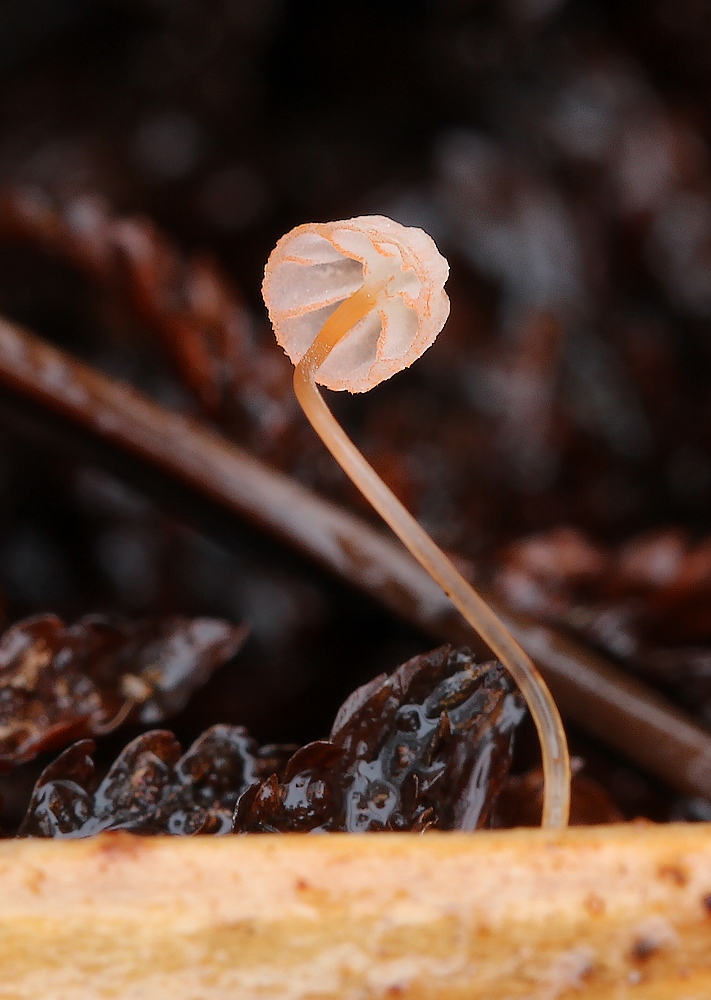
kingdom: Fungi
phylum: Basidiomycota
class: Agaricomycetes
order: Agaricales
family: Mycenaceae
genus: Mycena
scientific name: Mycena pterigena
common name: bregne-huesvamp
